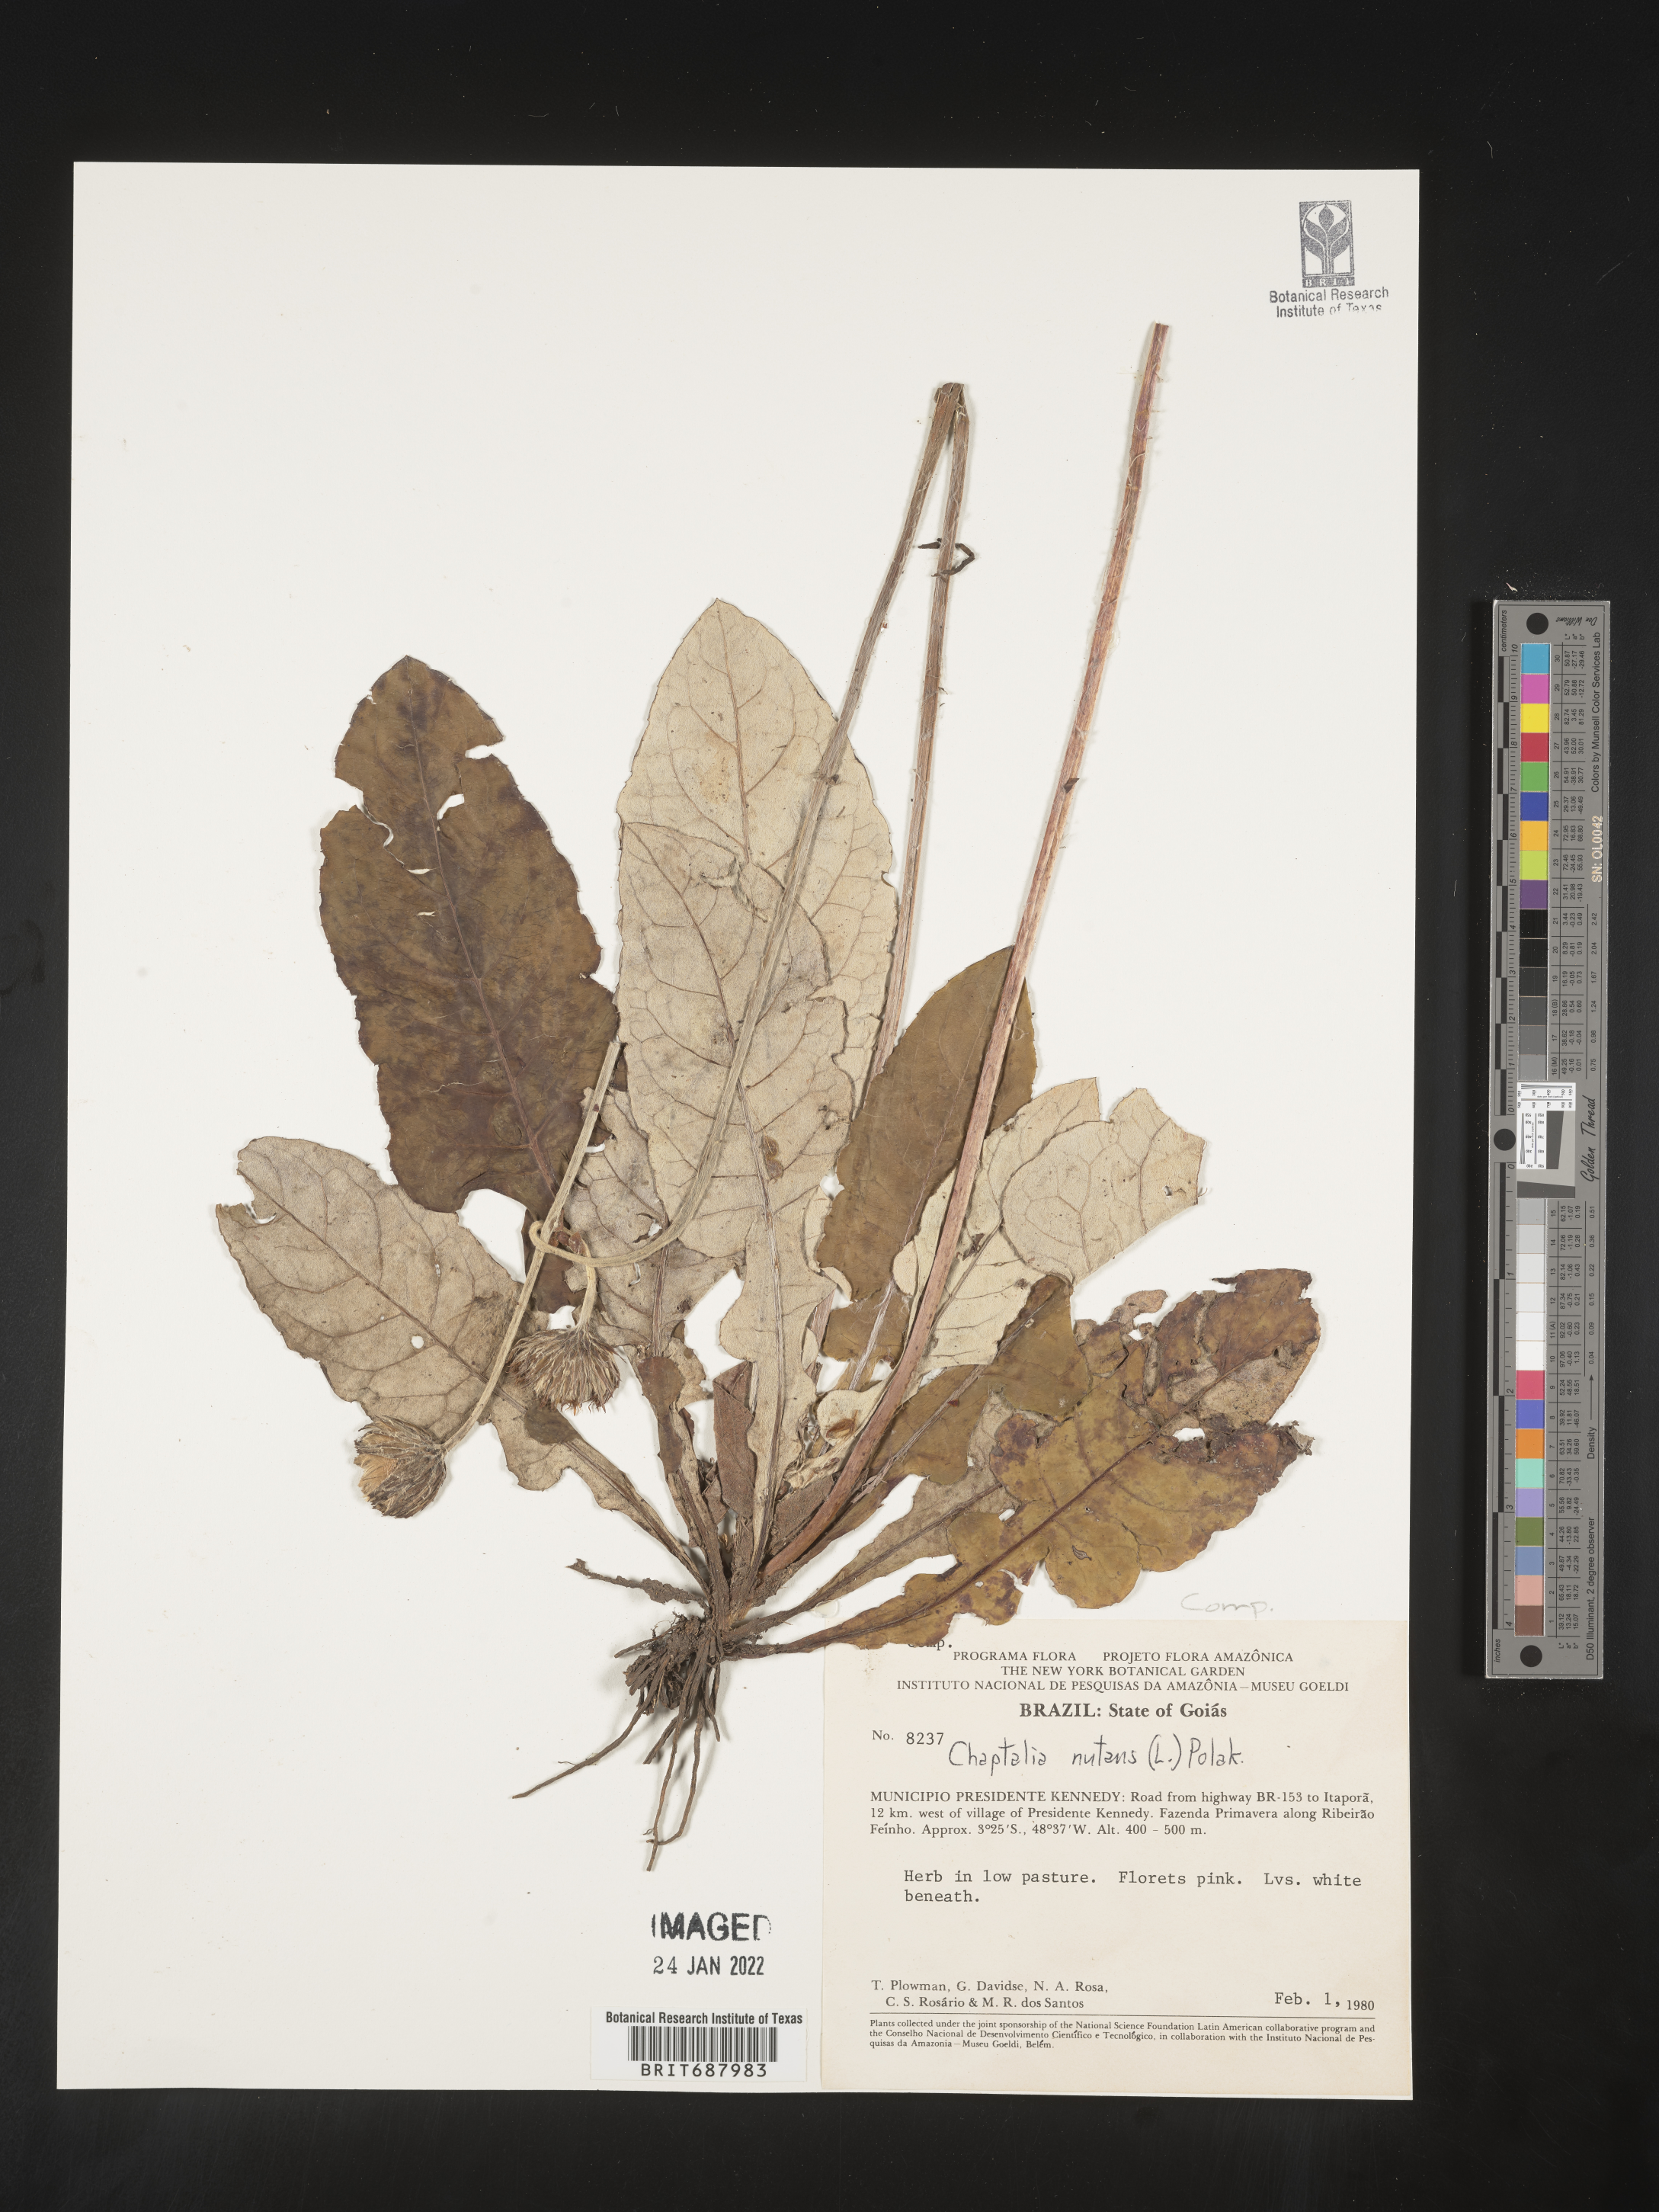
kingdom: Plantae
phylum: Tracheophyta
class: Magnoliopsida
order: Asterales
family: Asteraceae
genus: Chaptalia
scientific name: Chaptalia
